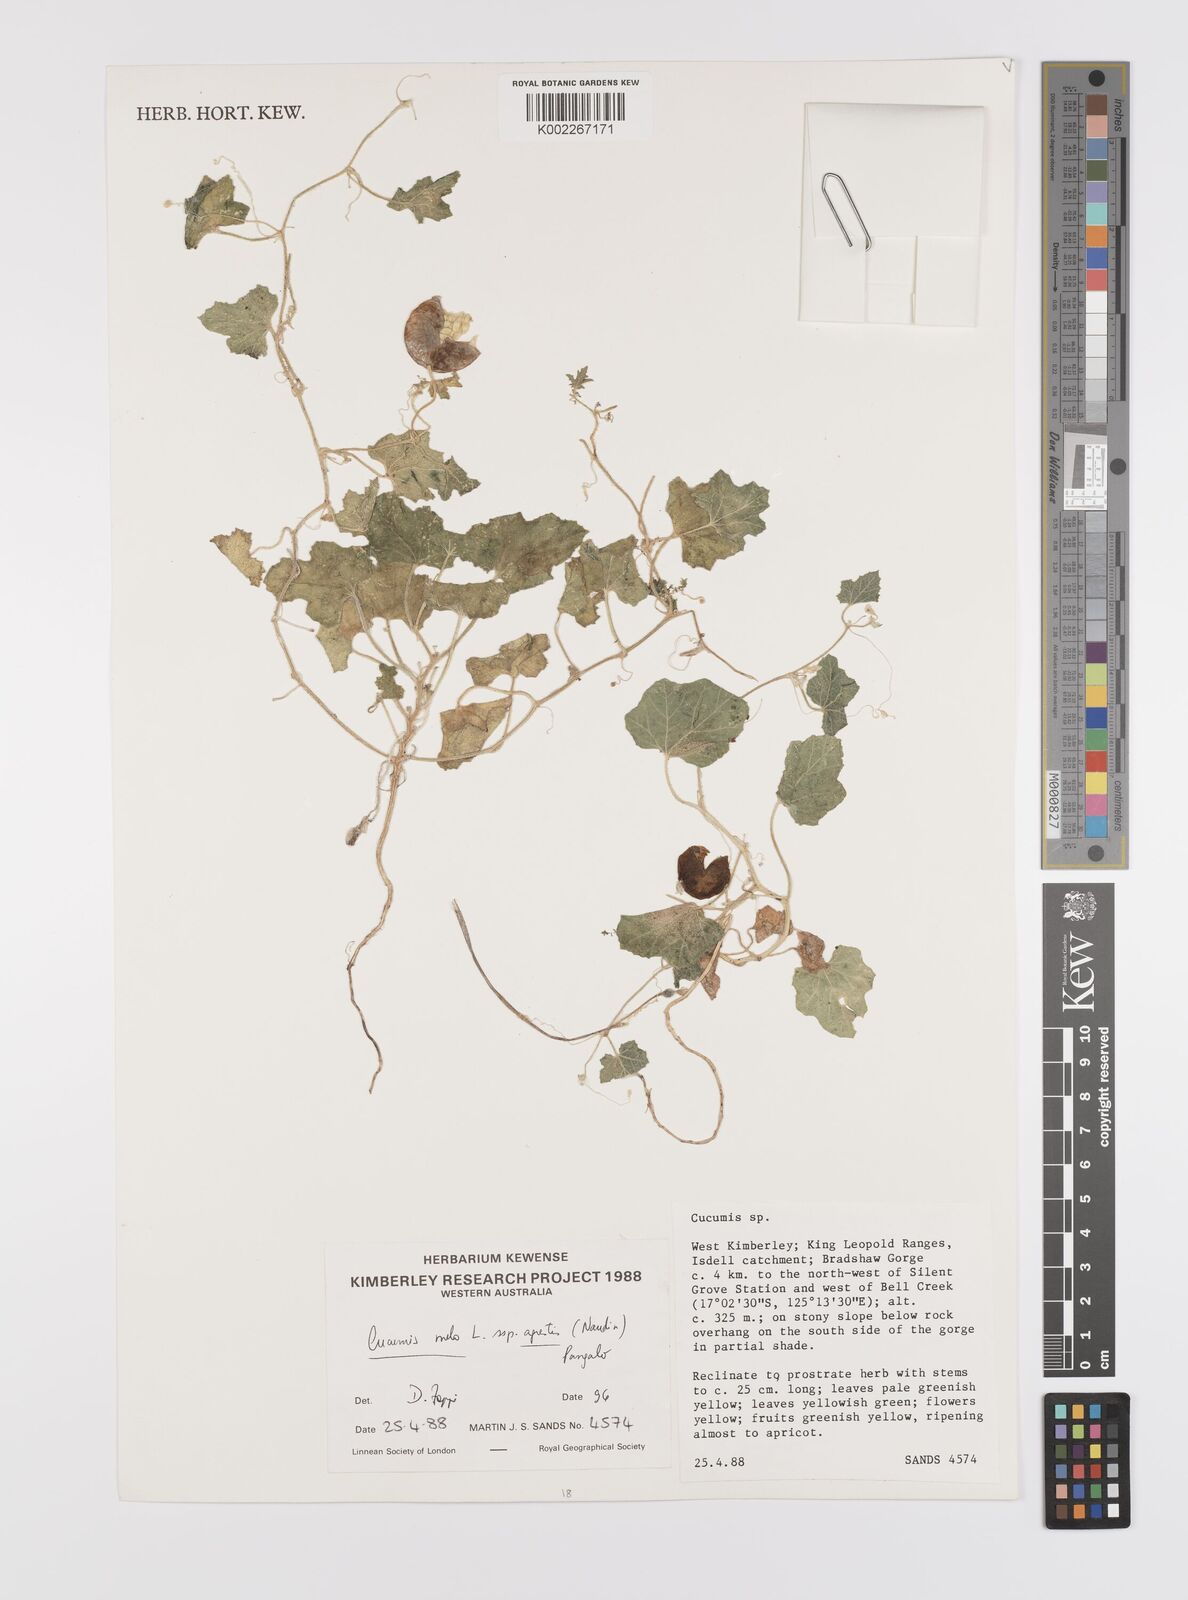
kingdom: Plantae
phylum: Tracheophyta
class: Magnoliopsida
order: Cucurbitales
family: Cucurbitaceae
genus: Cucumis
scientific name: Cucumis
